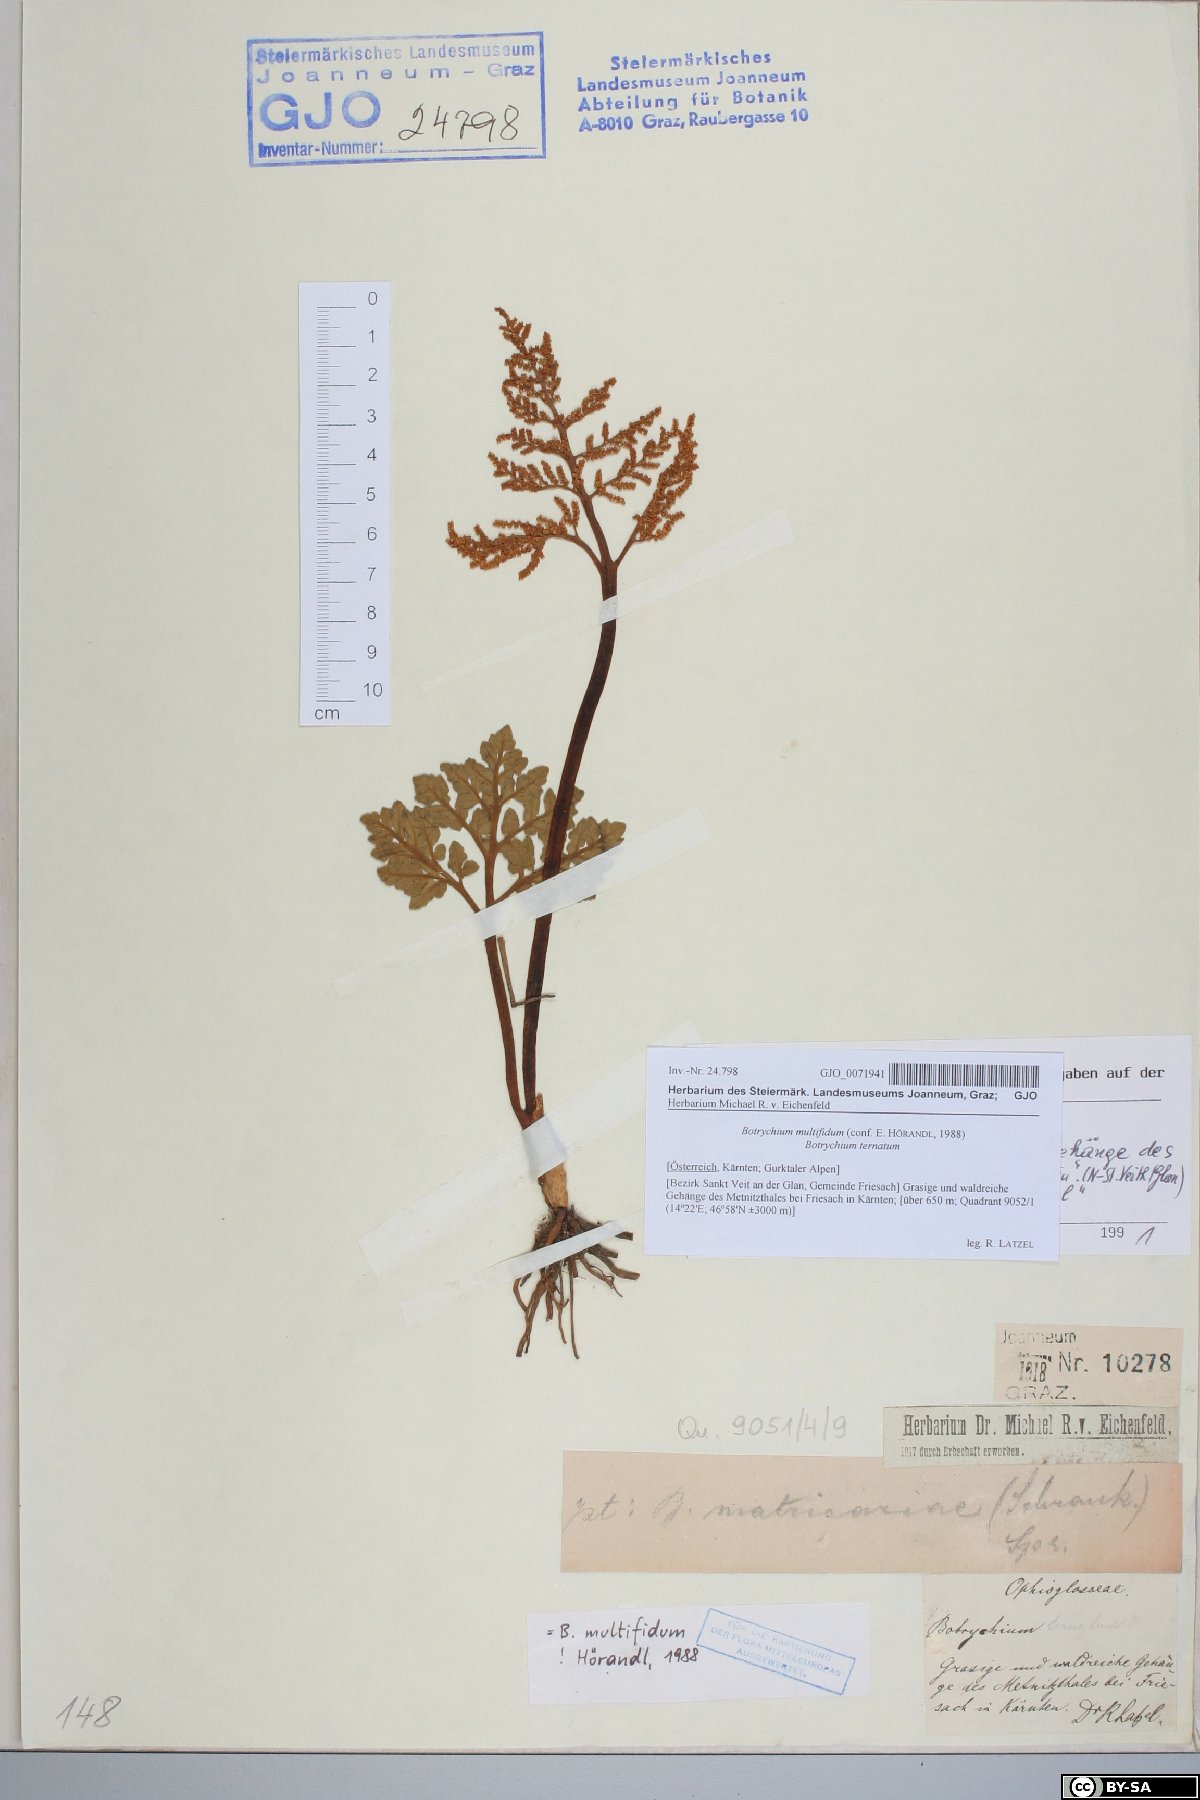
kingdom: Plantae
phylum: Tracheophyta
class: Polypodiopsida
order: Ophioglossales
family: Ophioglossaceae
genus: Sceptridium
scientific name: Sceptridium multifidum
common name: Leathery grape fern
